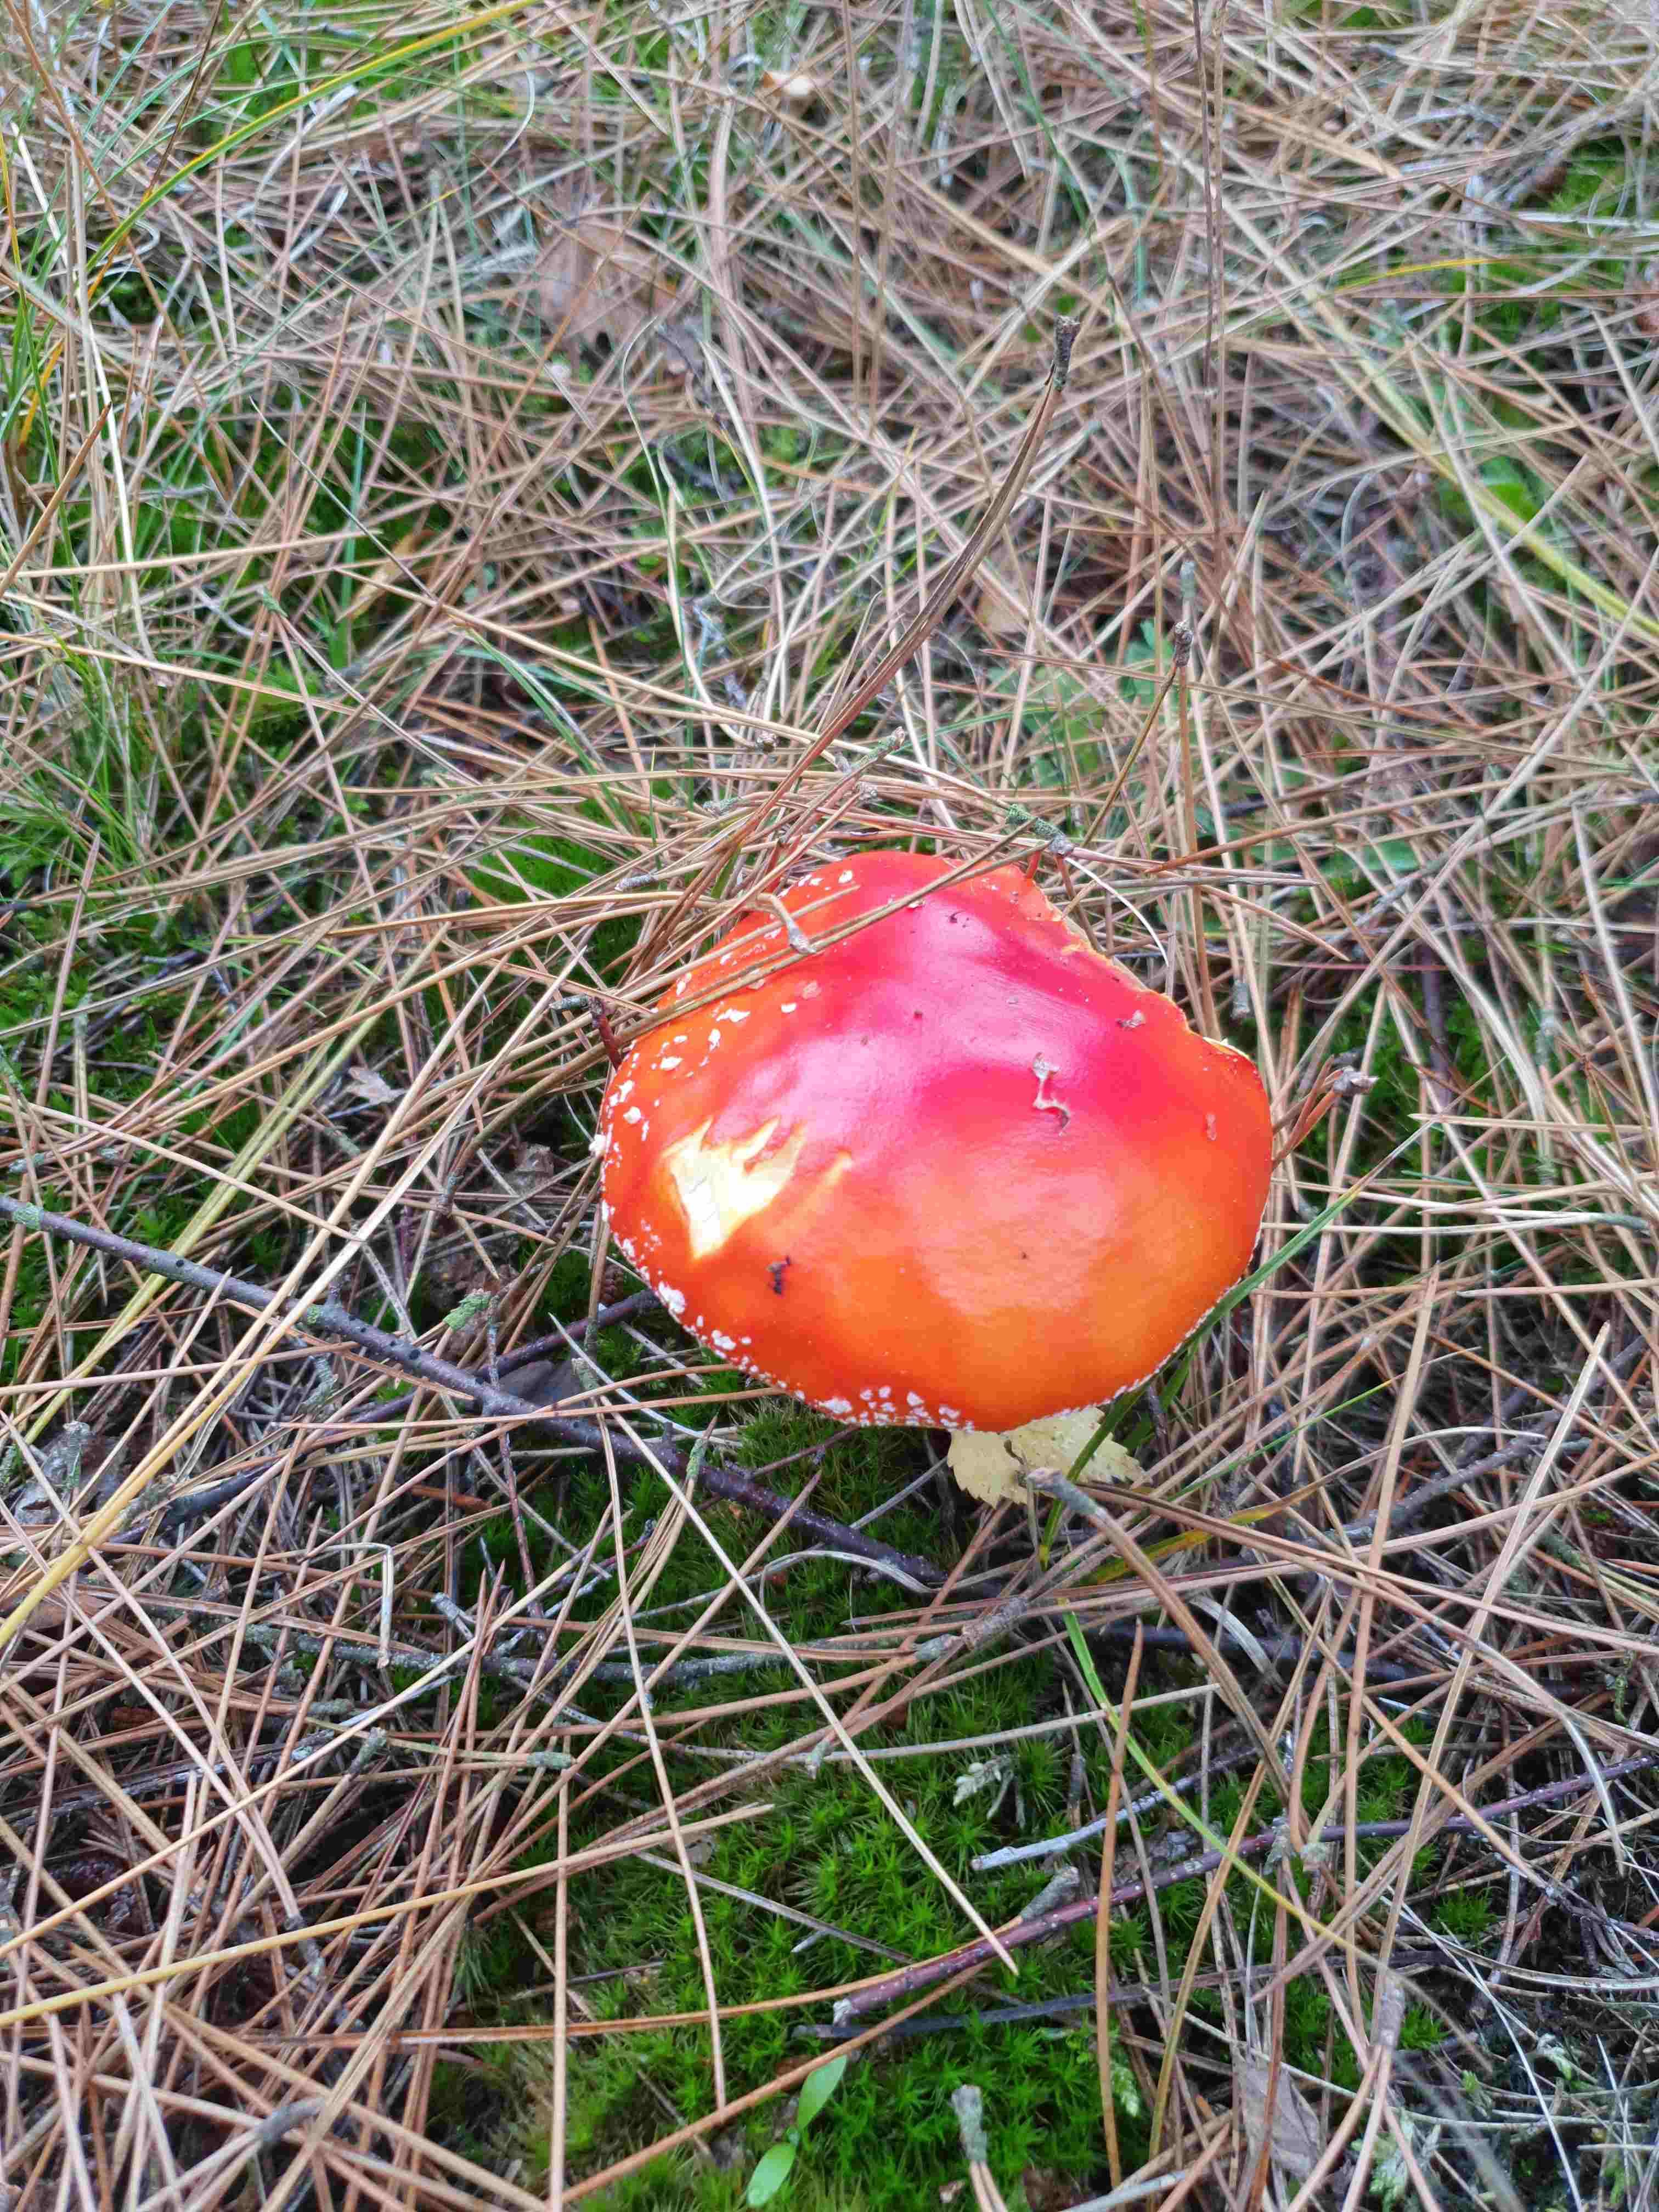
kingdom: Fungi
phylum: Basidiomycota
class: Agaricomycetes
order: Agaricales
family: Amanitaceae
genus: Amanita
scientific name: Amanita muscaria
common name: rød fluesvamp
